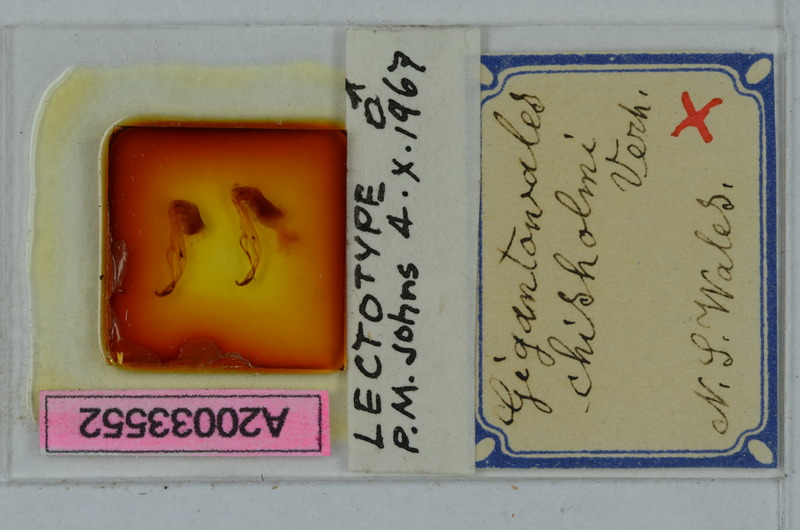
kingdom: Animalia
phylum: Arthropoda
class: Diplopoda
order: Polydesmida
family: Paradoxosomatidae
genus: Gigantowales
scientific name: Gigantowales chisholmi
